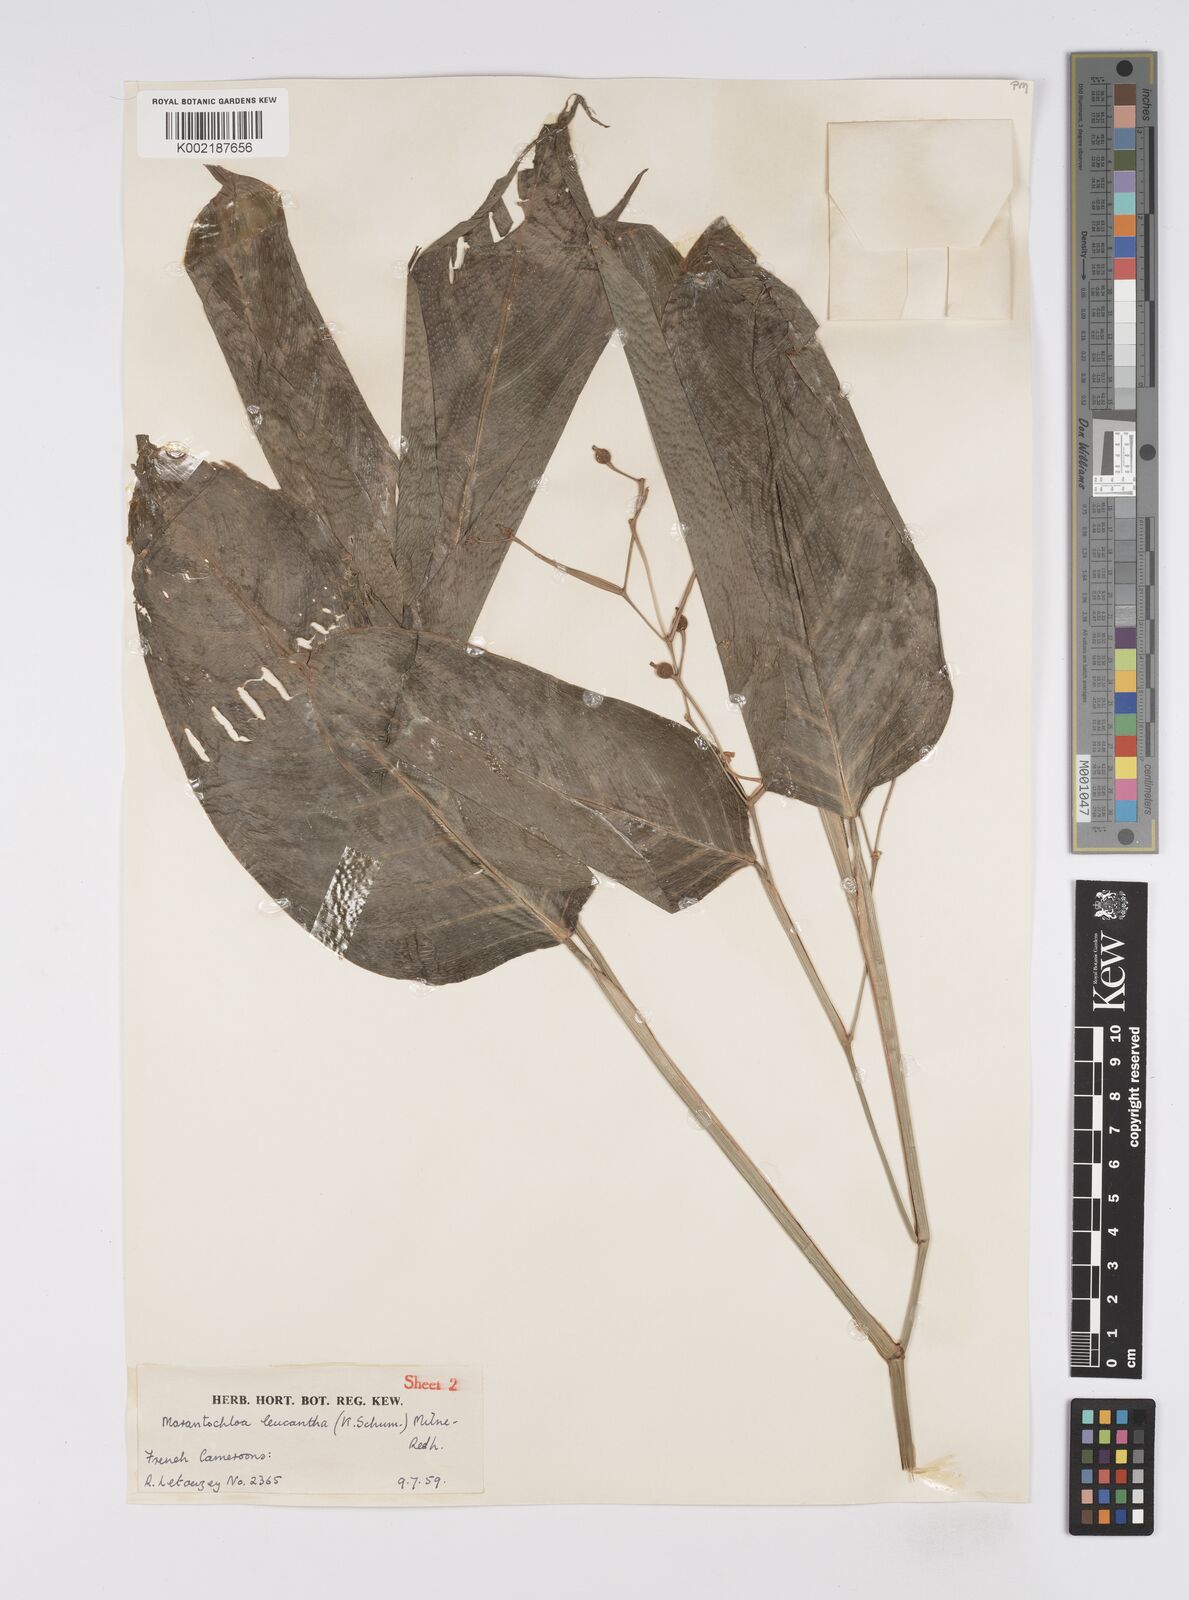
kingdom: Plantae
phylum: Tracheophyta
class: Liliopsida
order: Zingiberales
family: Marantaceae
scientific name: Marantaceae
